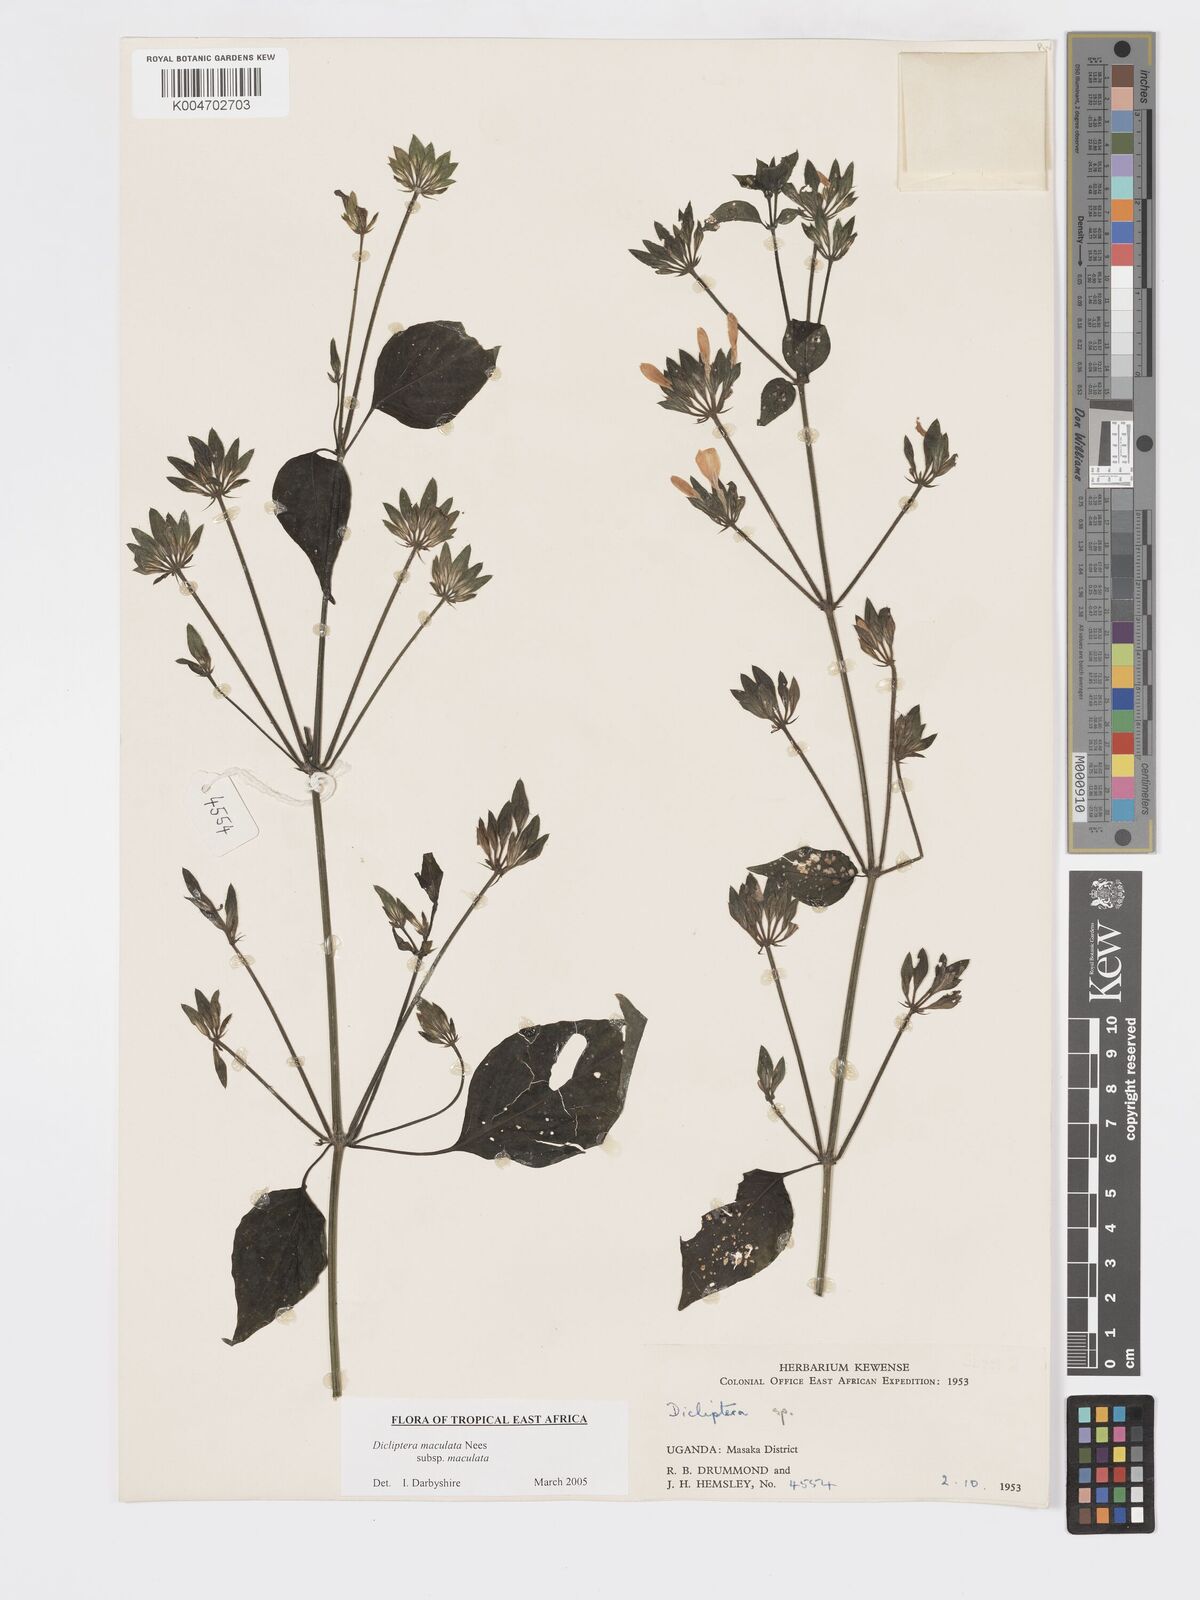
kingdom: Plantae
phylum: Tracheophyta
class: Magnoliopsida
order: Lamiales
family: Acanthaceae
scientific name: Acanthaceae
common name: Acanthaceae
